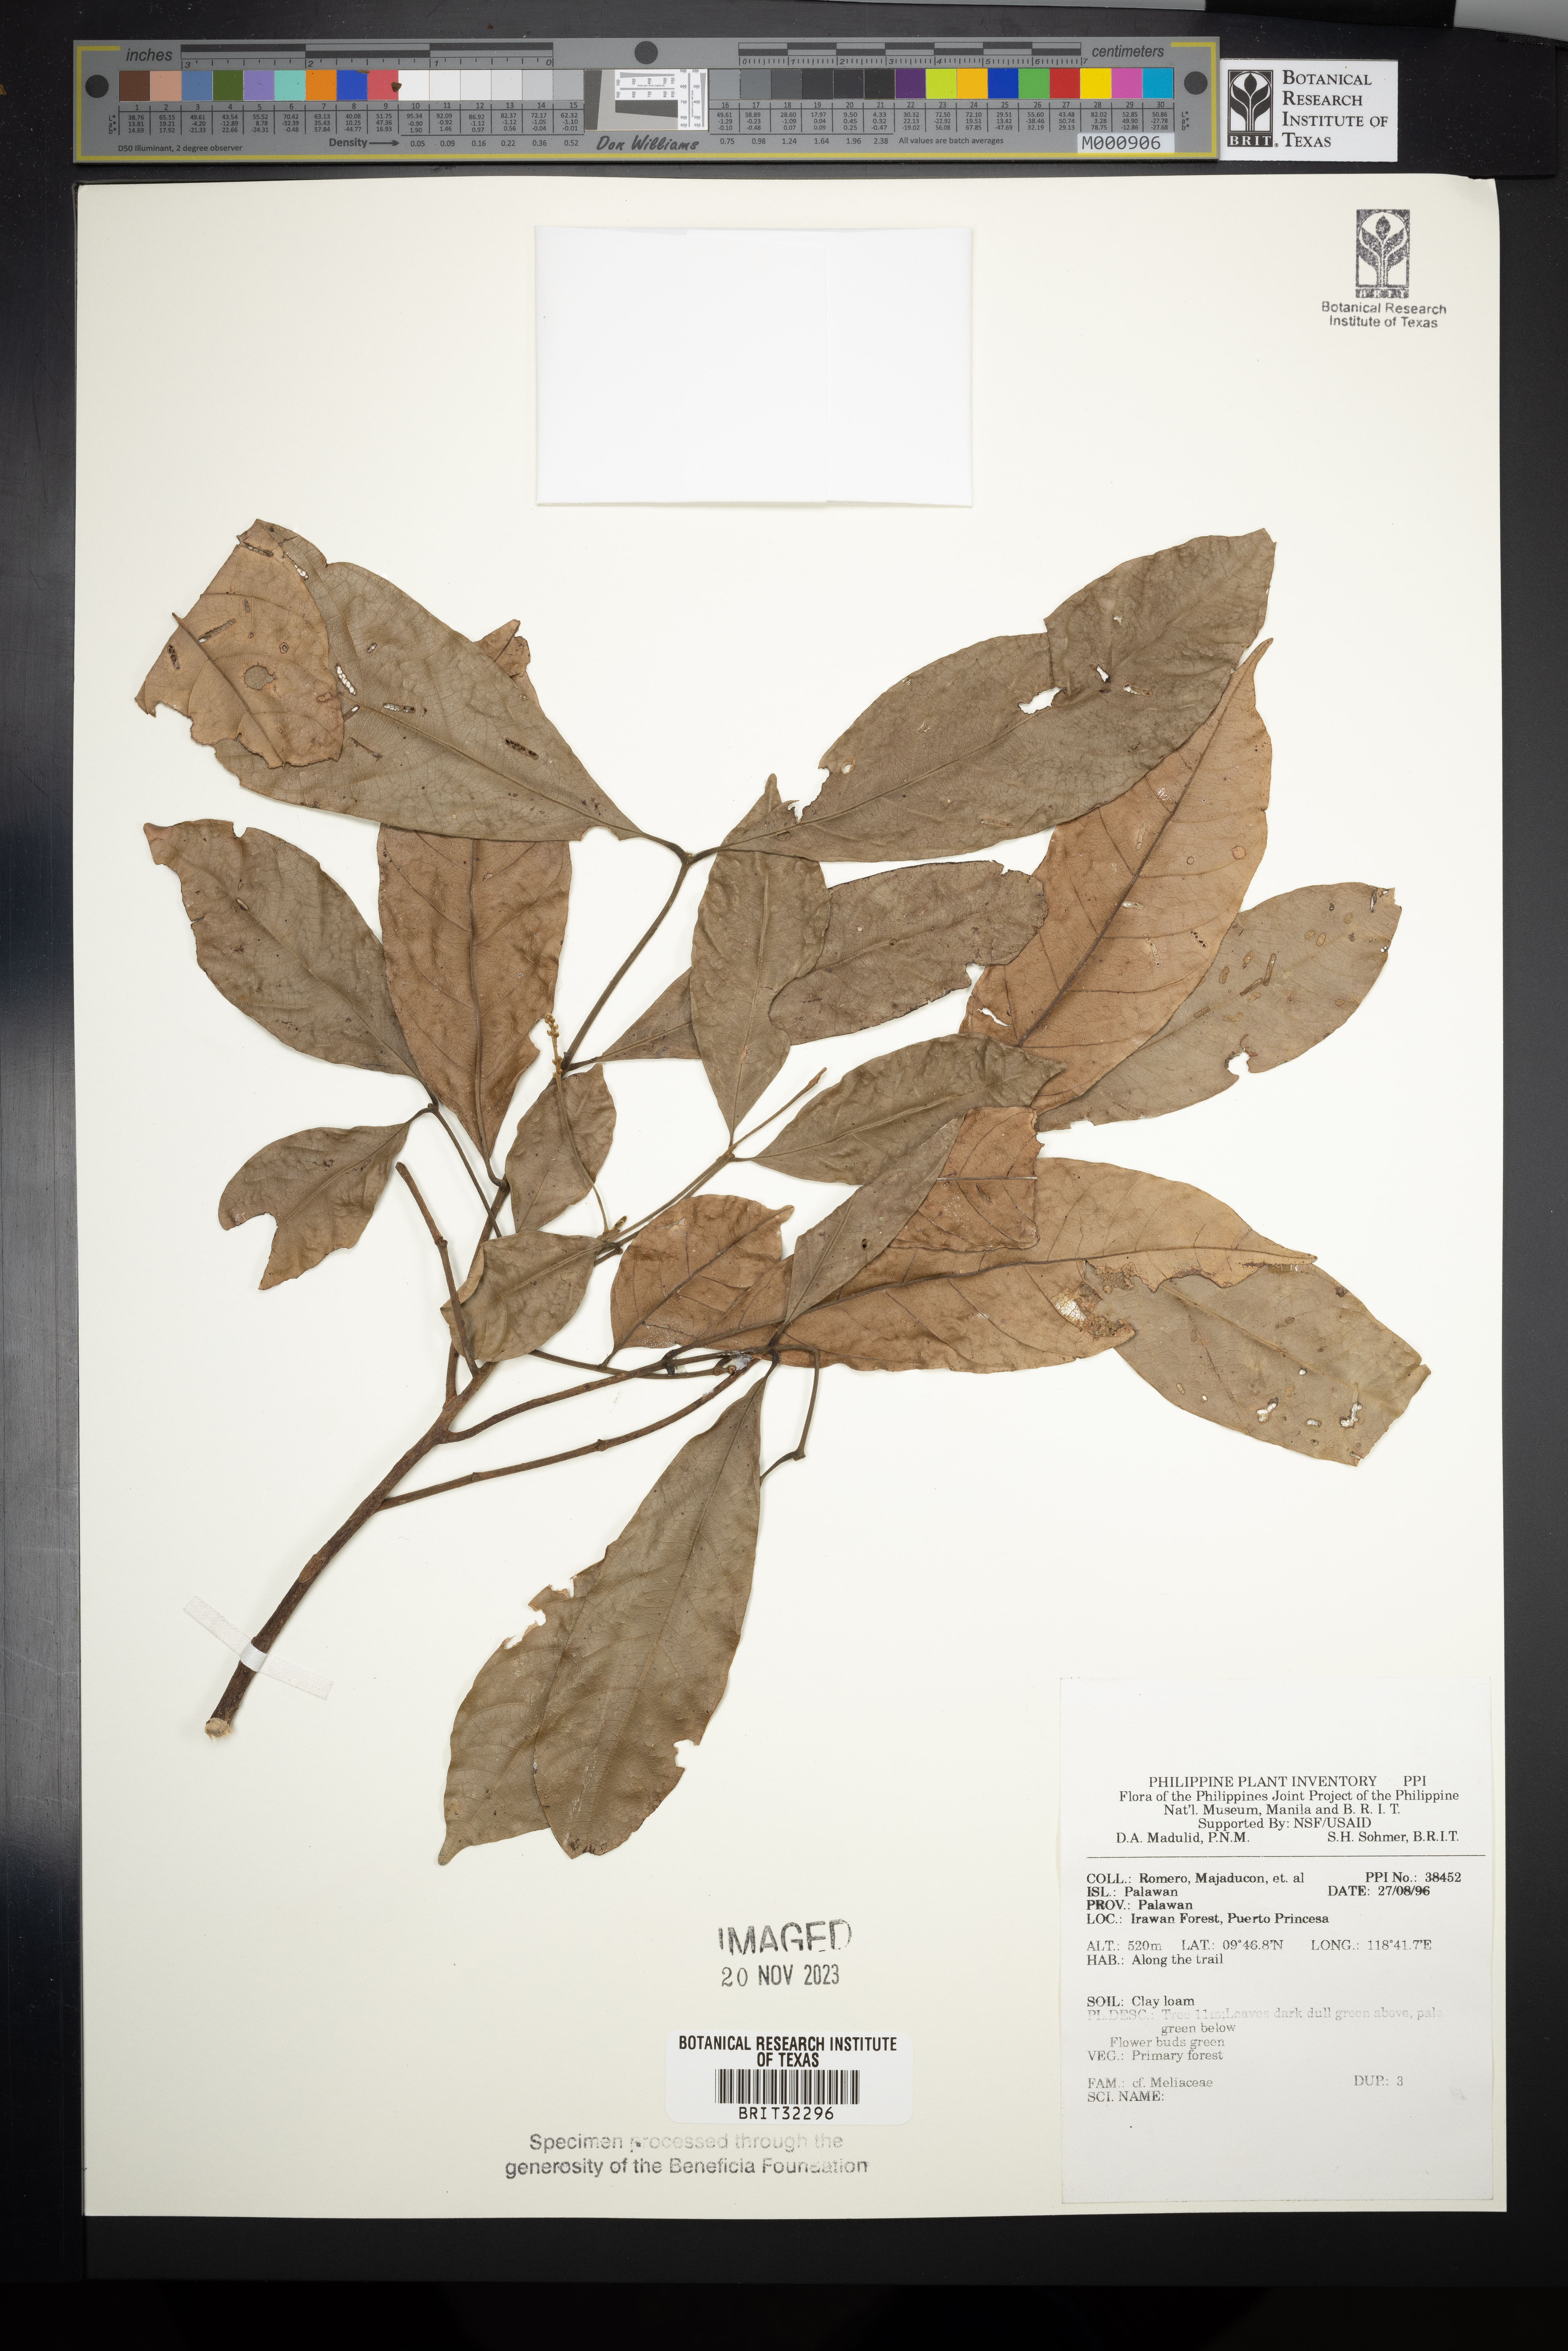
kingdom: Plantae
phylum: Tracheophyta
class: Magnoliopsida
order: Sapindales
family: Meliaceae
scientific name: Meliaceae
